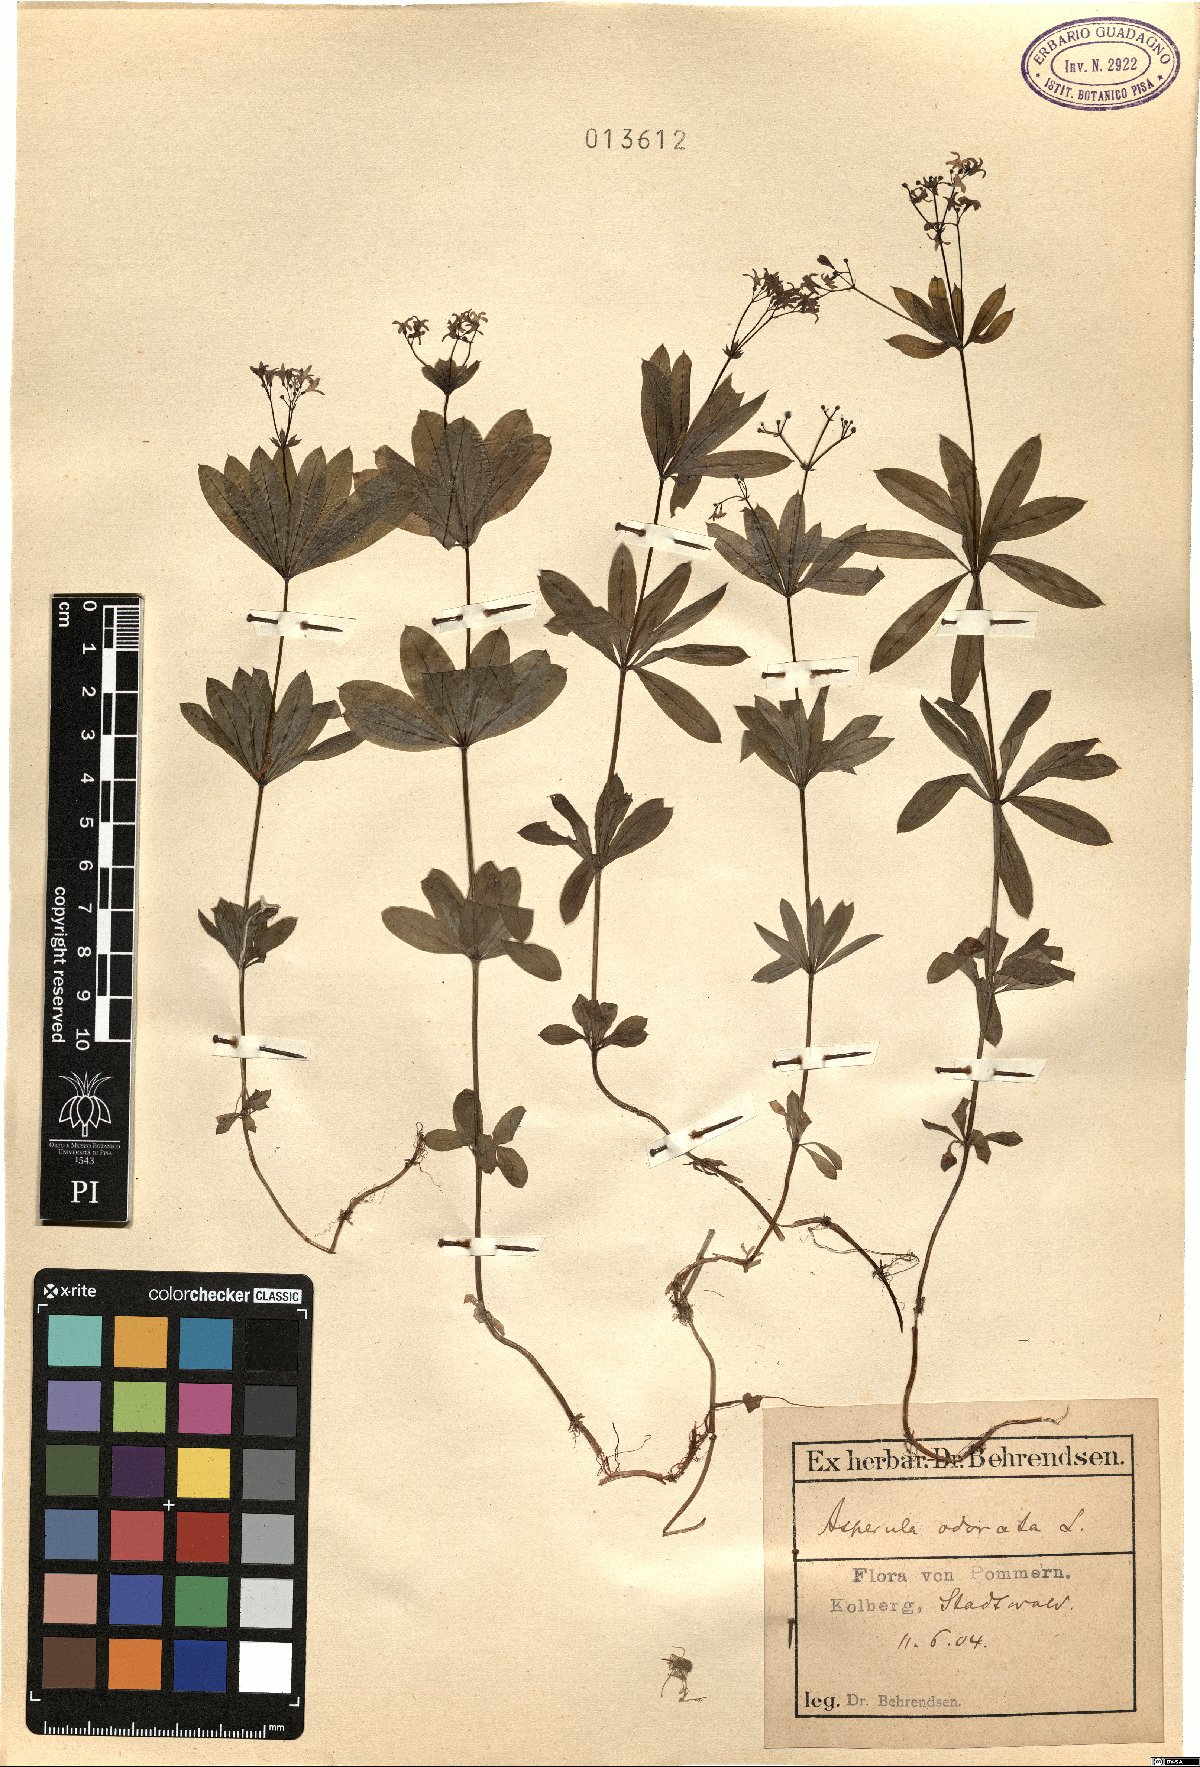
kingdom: Plantae
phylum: Tracheophyta
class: Magnoliopsida
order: Gentianales
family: Rubiaceae
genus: Galium
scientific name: Galium odoratum
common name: Sweet woodruff
